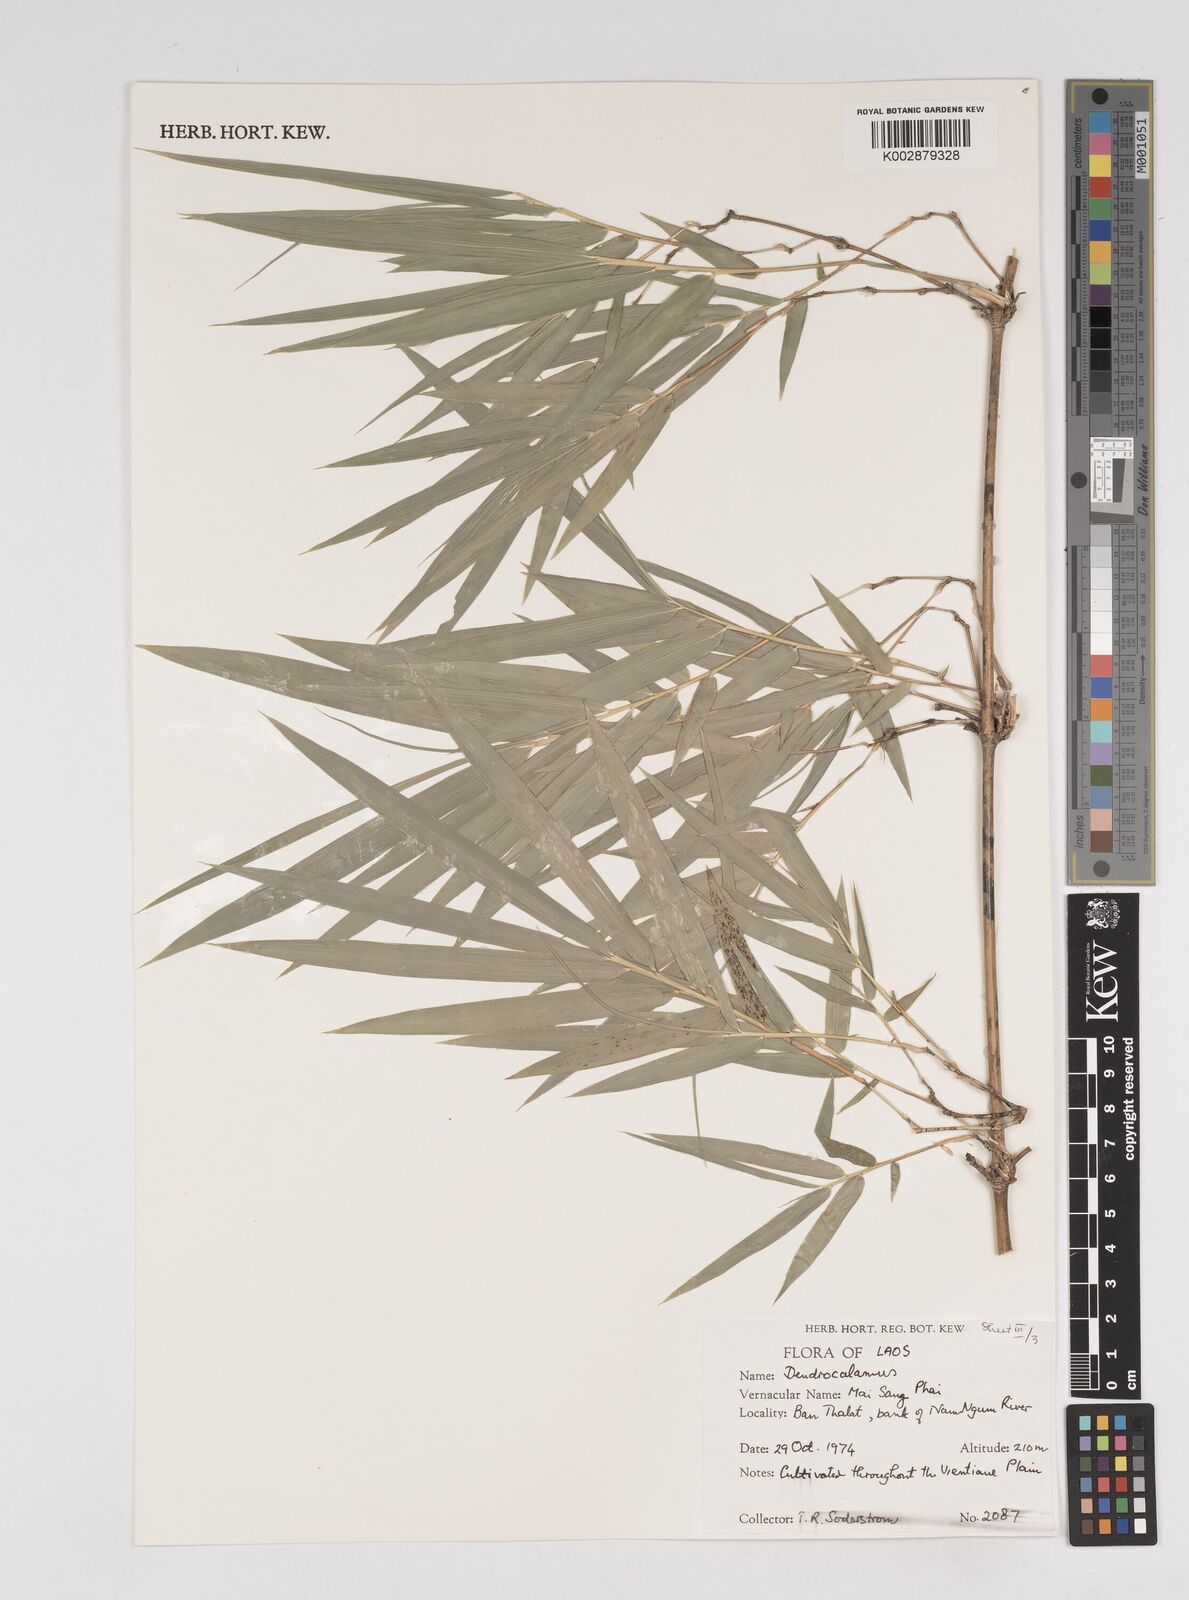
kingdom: Plantae
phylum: Tracheophyta
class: Liliopsida
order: Poales
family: Poaceae
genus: Dendrocalamus
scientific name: Dendrocalamus
